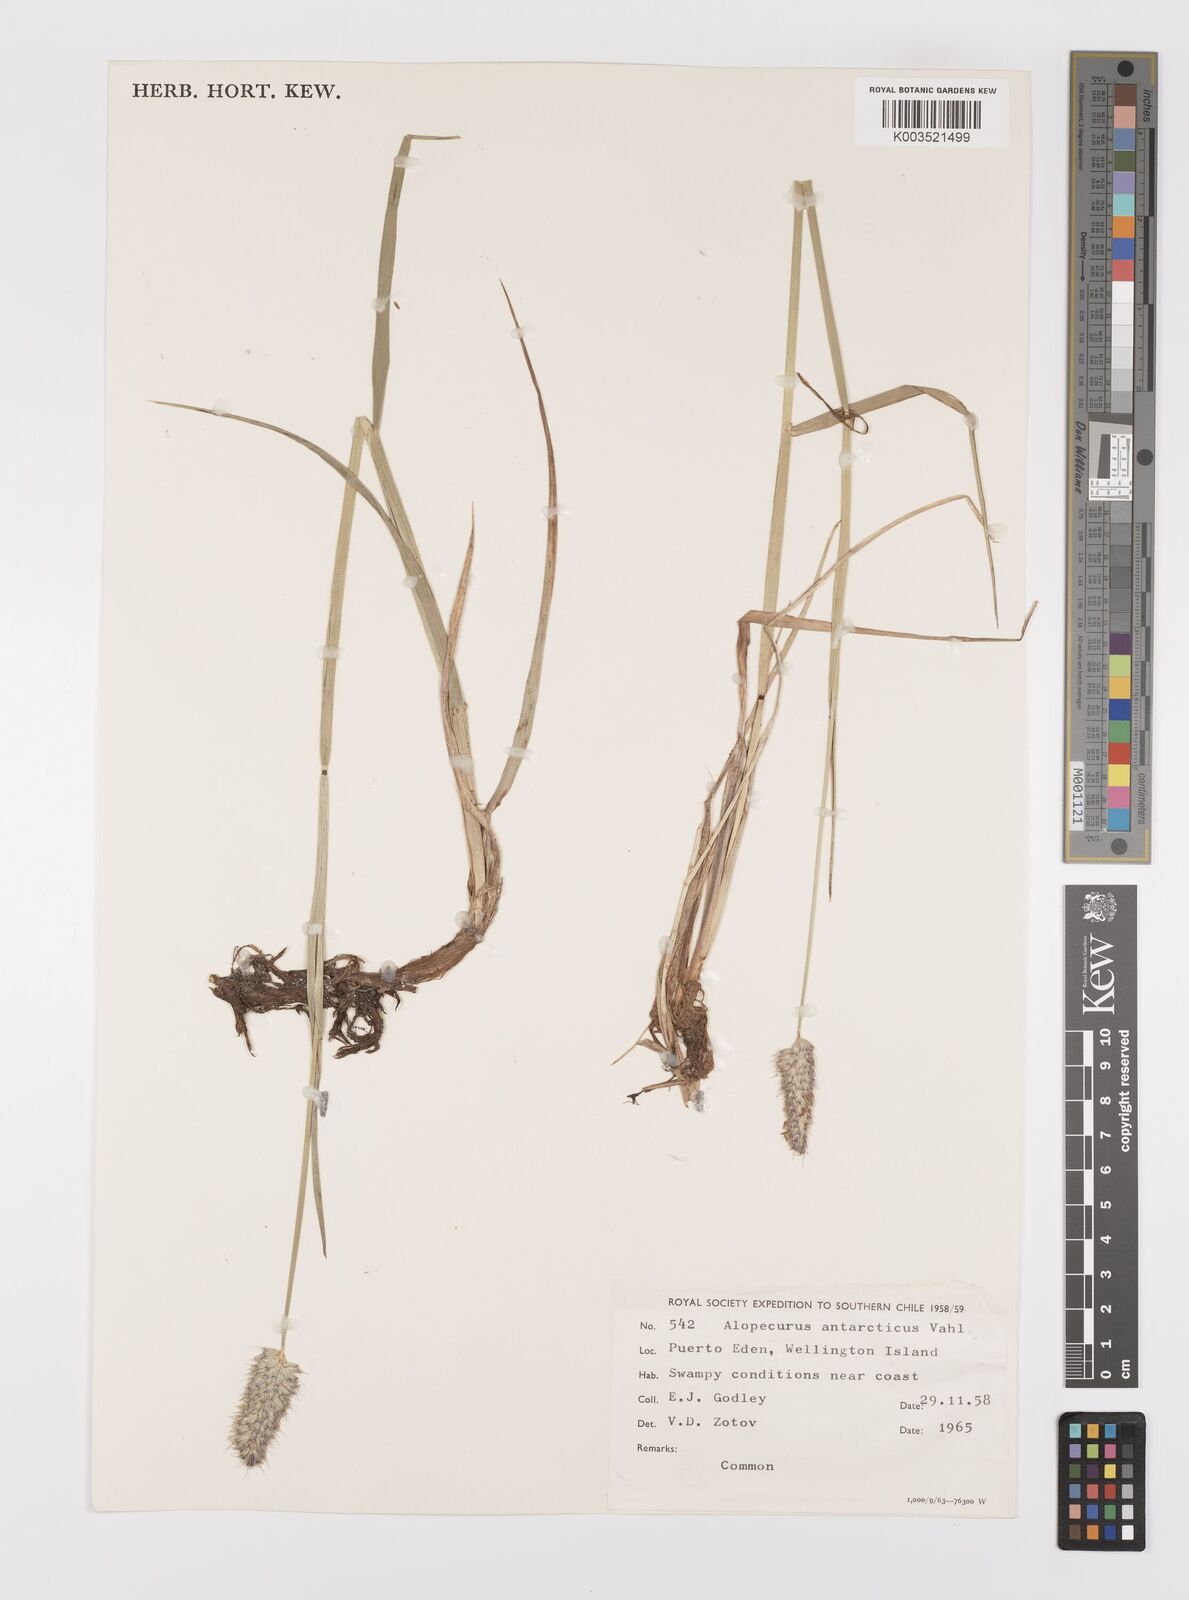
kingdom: Plantae
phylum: Tracheophyta
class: Liliopsida
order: Poales
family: Poaceae
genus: Alopecurus
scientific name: Alopecurus magellanicus
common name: Alpine foxtail
